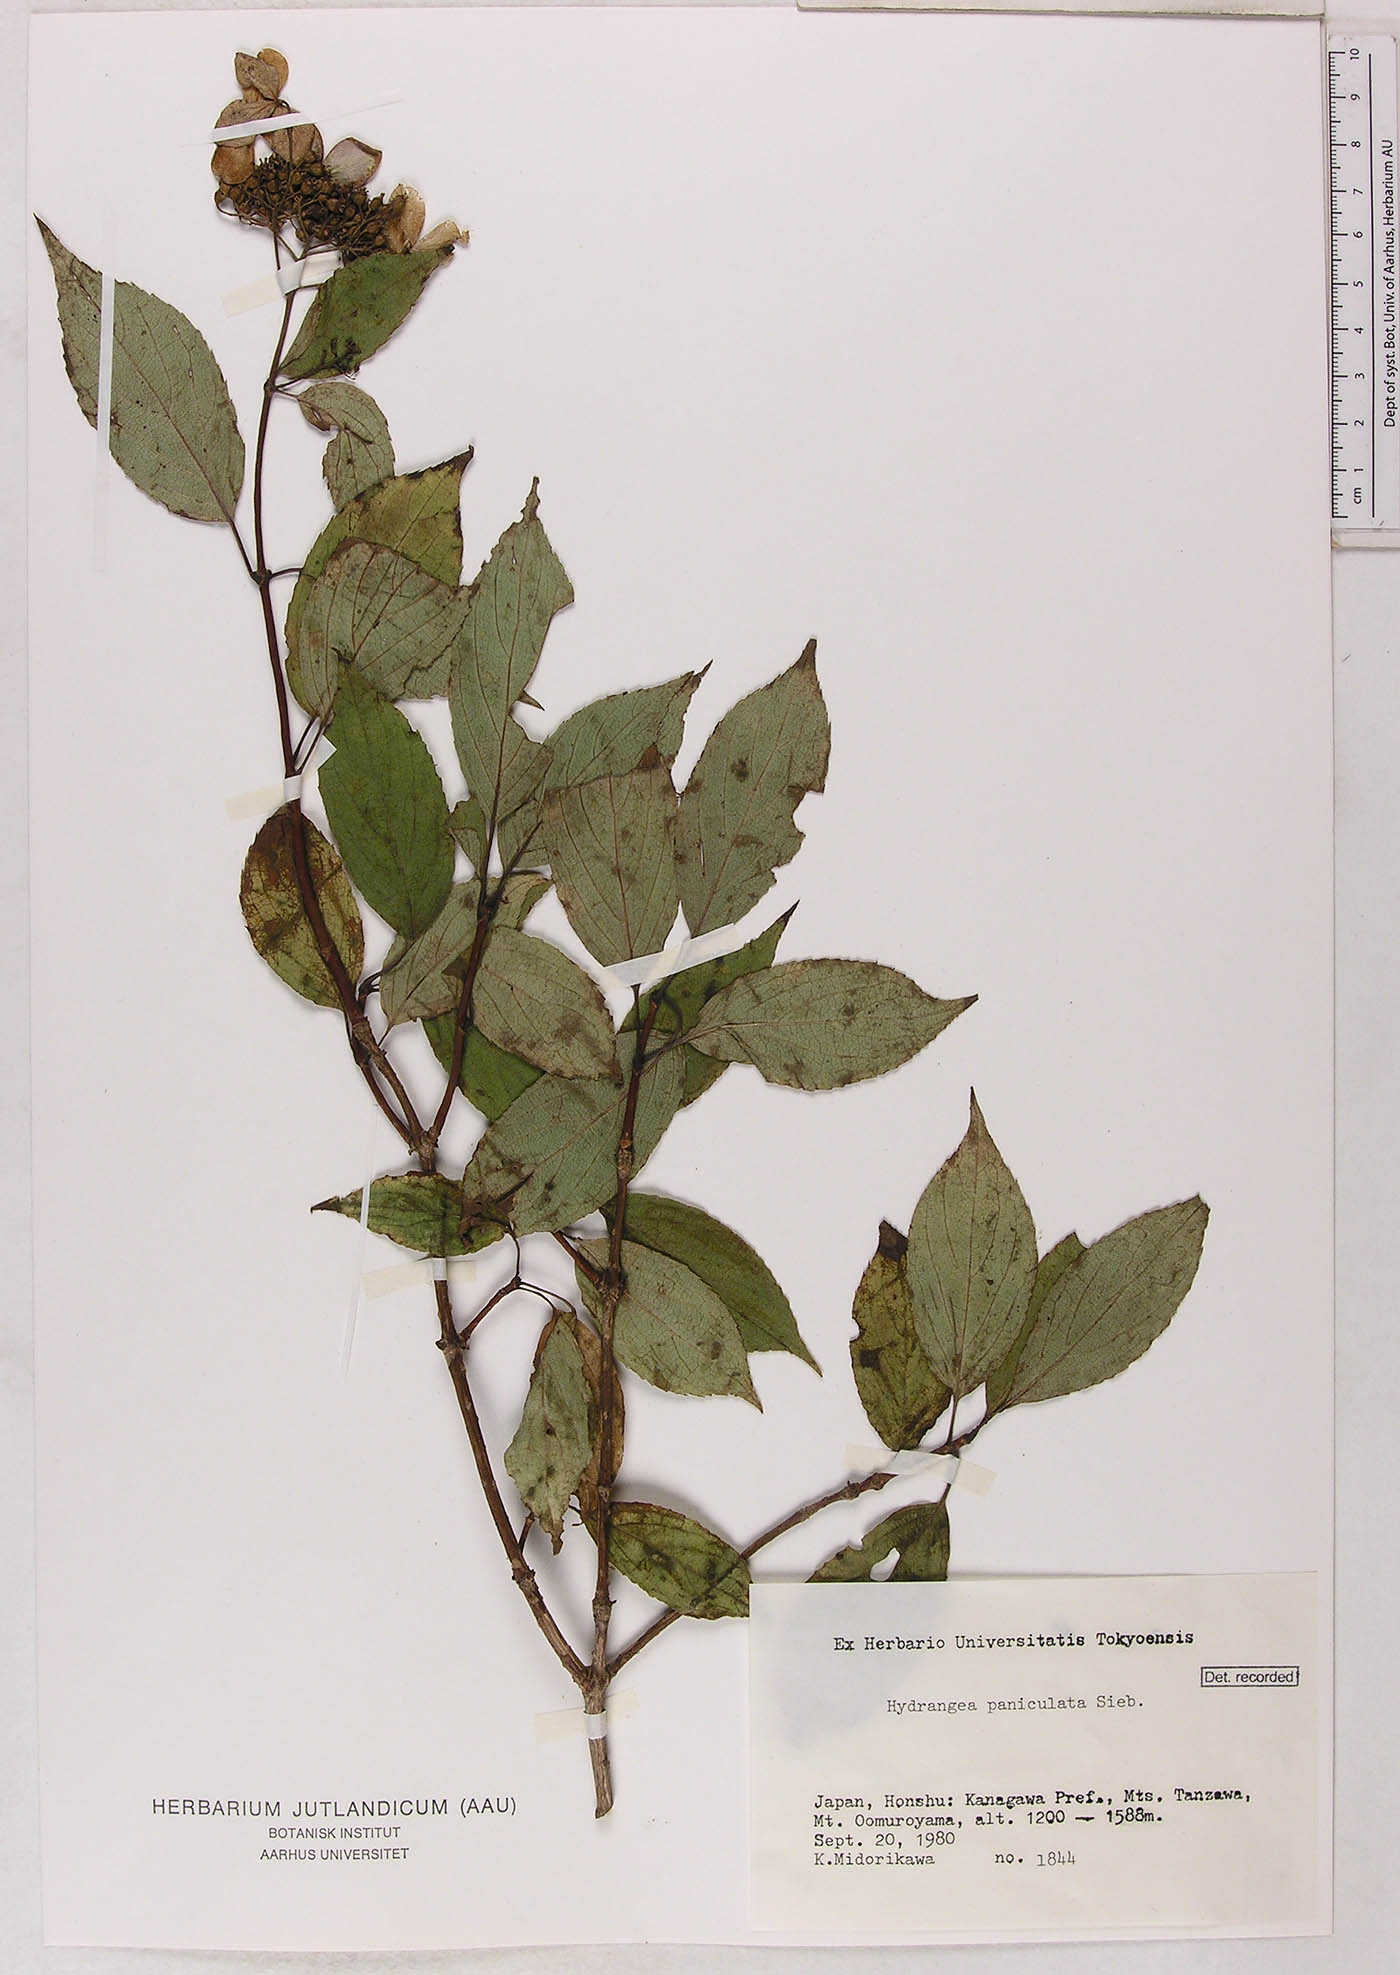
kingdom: Plantae
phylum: Tracheophyta
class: Magnoliopsida
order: Cornales
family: Hydrangeaceae
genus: Hydrangea
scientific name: Hydrangea paniculata
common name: Panicled hydrangea
